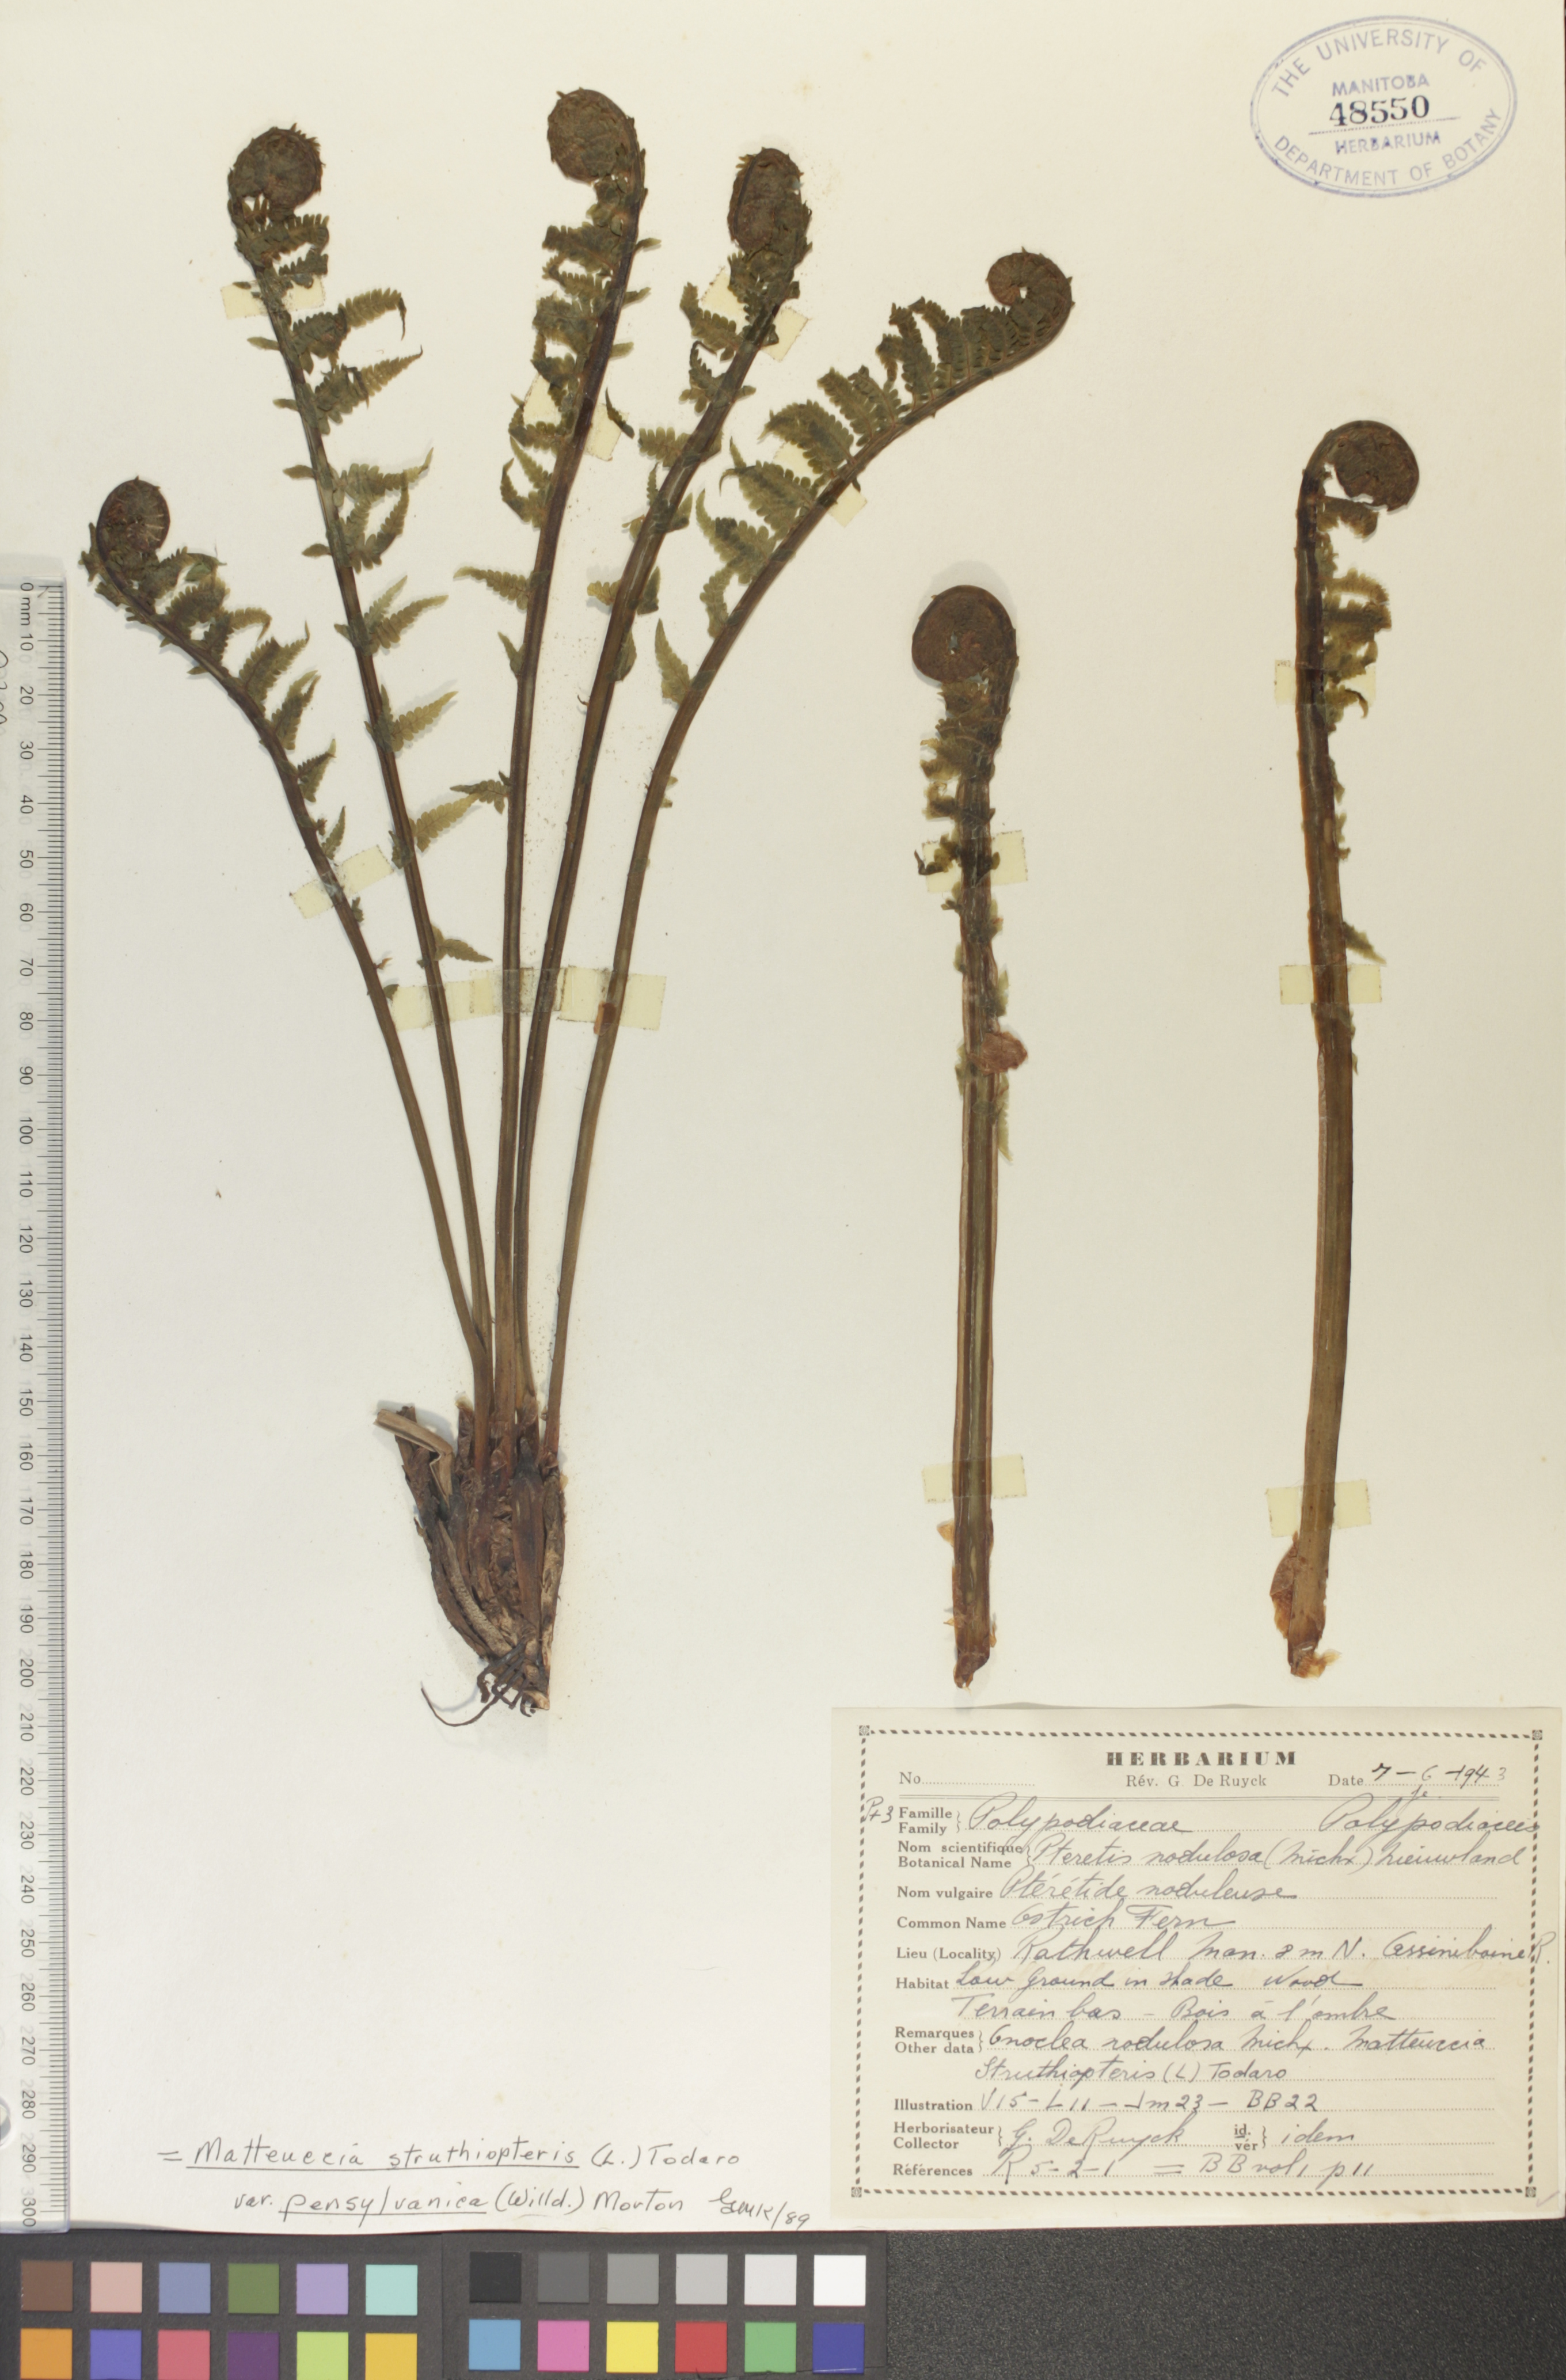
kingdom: Plantae
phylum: Tracheophyta
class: Polypodiopsida
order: Polypodiales
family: Onocleaceae
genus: Matteuccia
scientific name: Matteuccia pensylvanica
